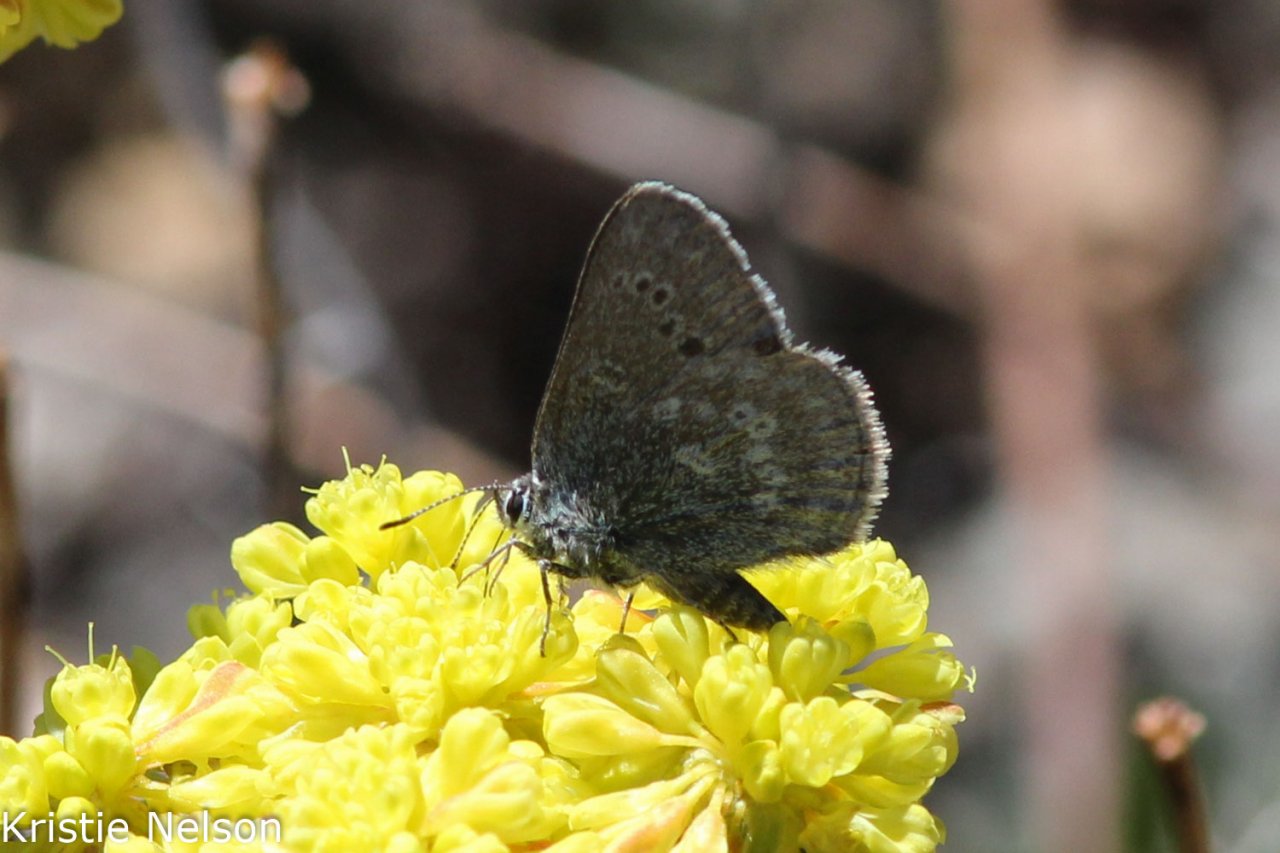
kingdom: Animalia
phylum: Arthropoda
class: Insecta
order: Lepidoptera
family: Lycaenidae
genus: Satyrium
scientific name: Satyrium fuliginosa
